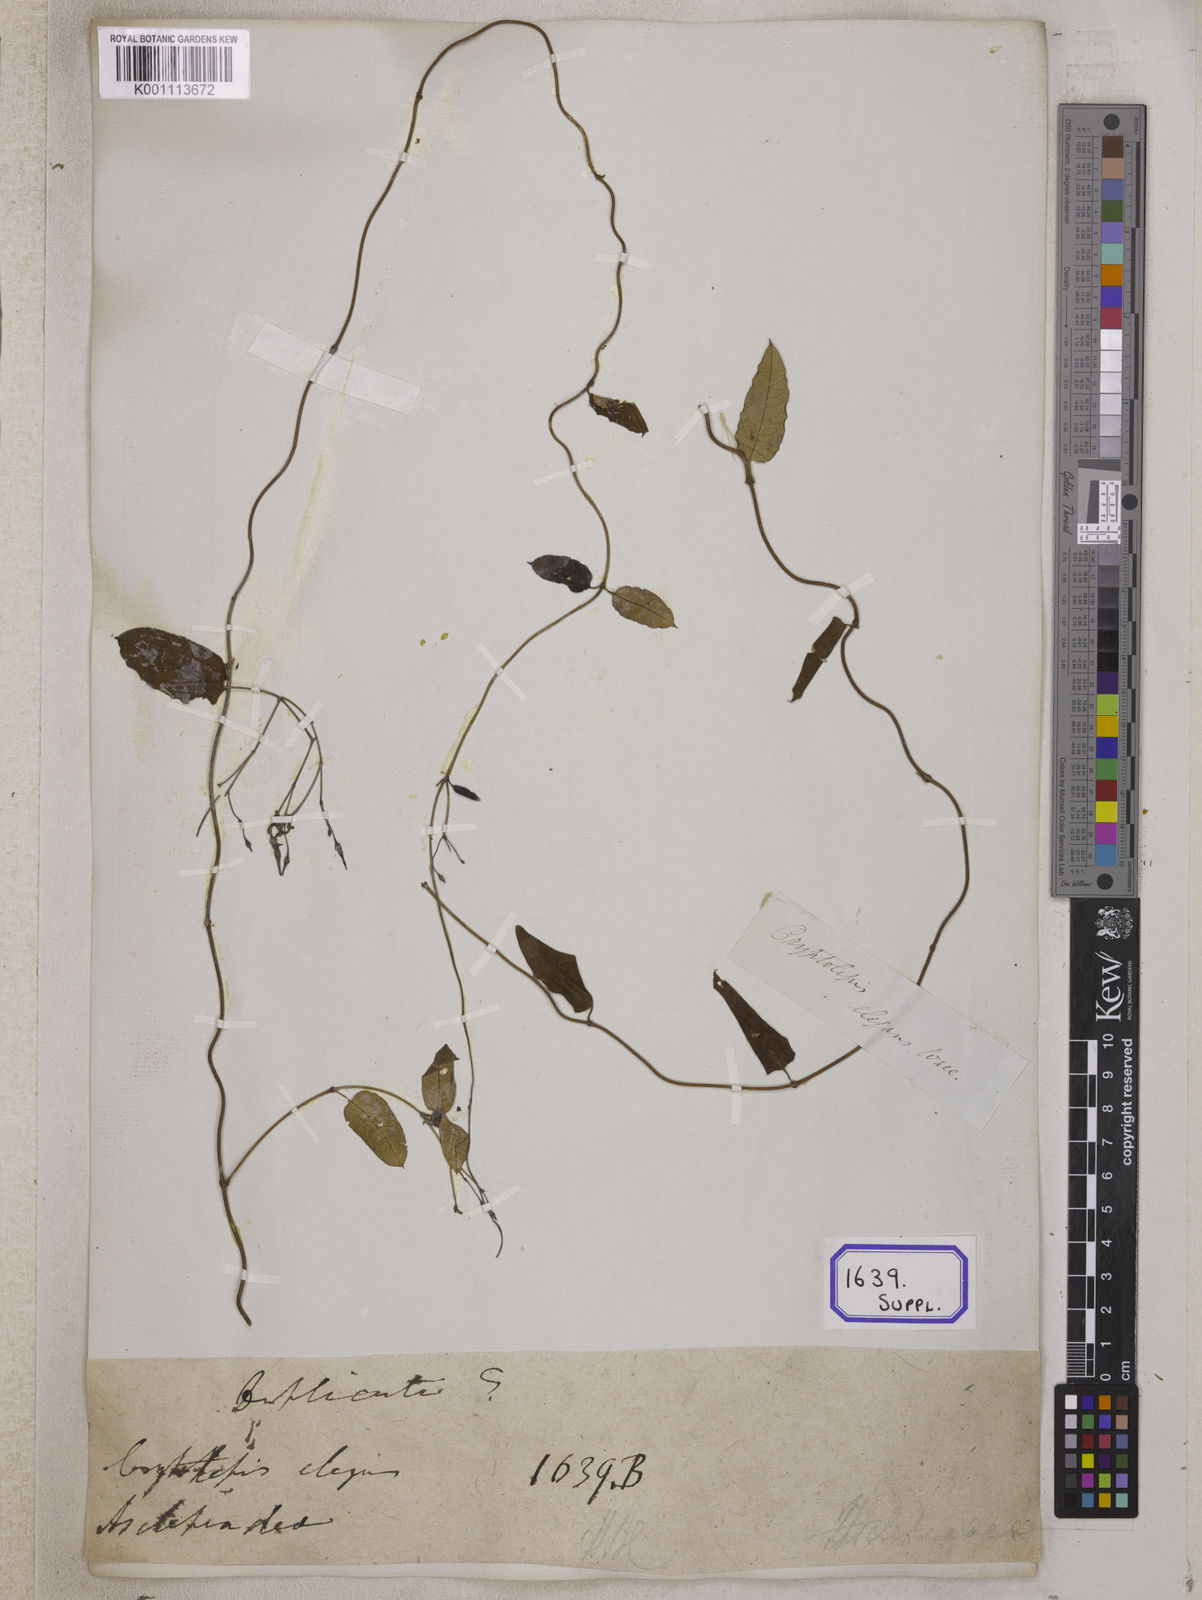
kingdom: Plantae
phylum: Tracheophyta
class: Magnoliopsida
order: Gentianales
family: Apocynaceae
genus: Cryptolepis
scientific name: Cryptolepis
